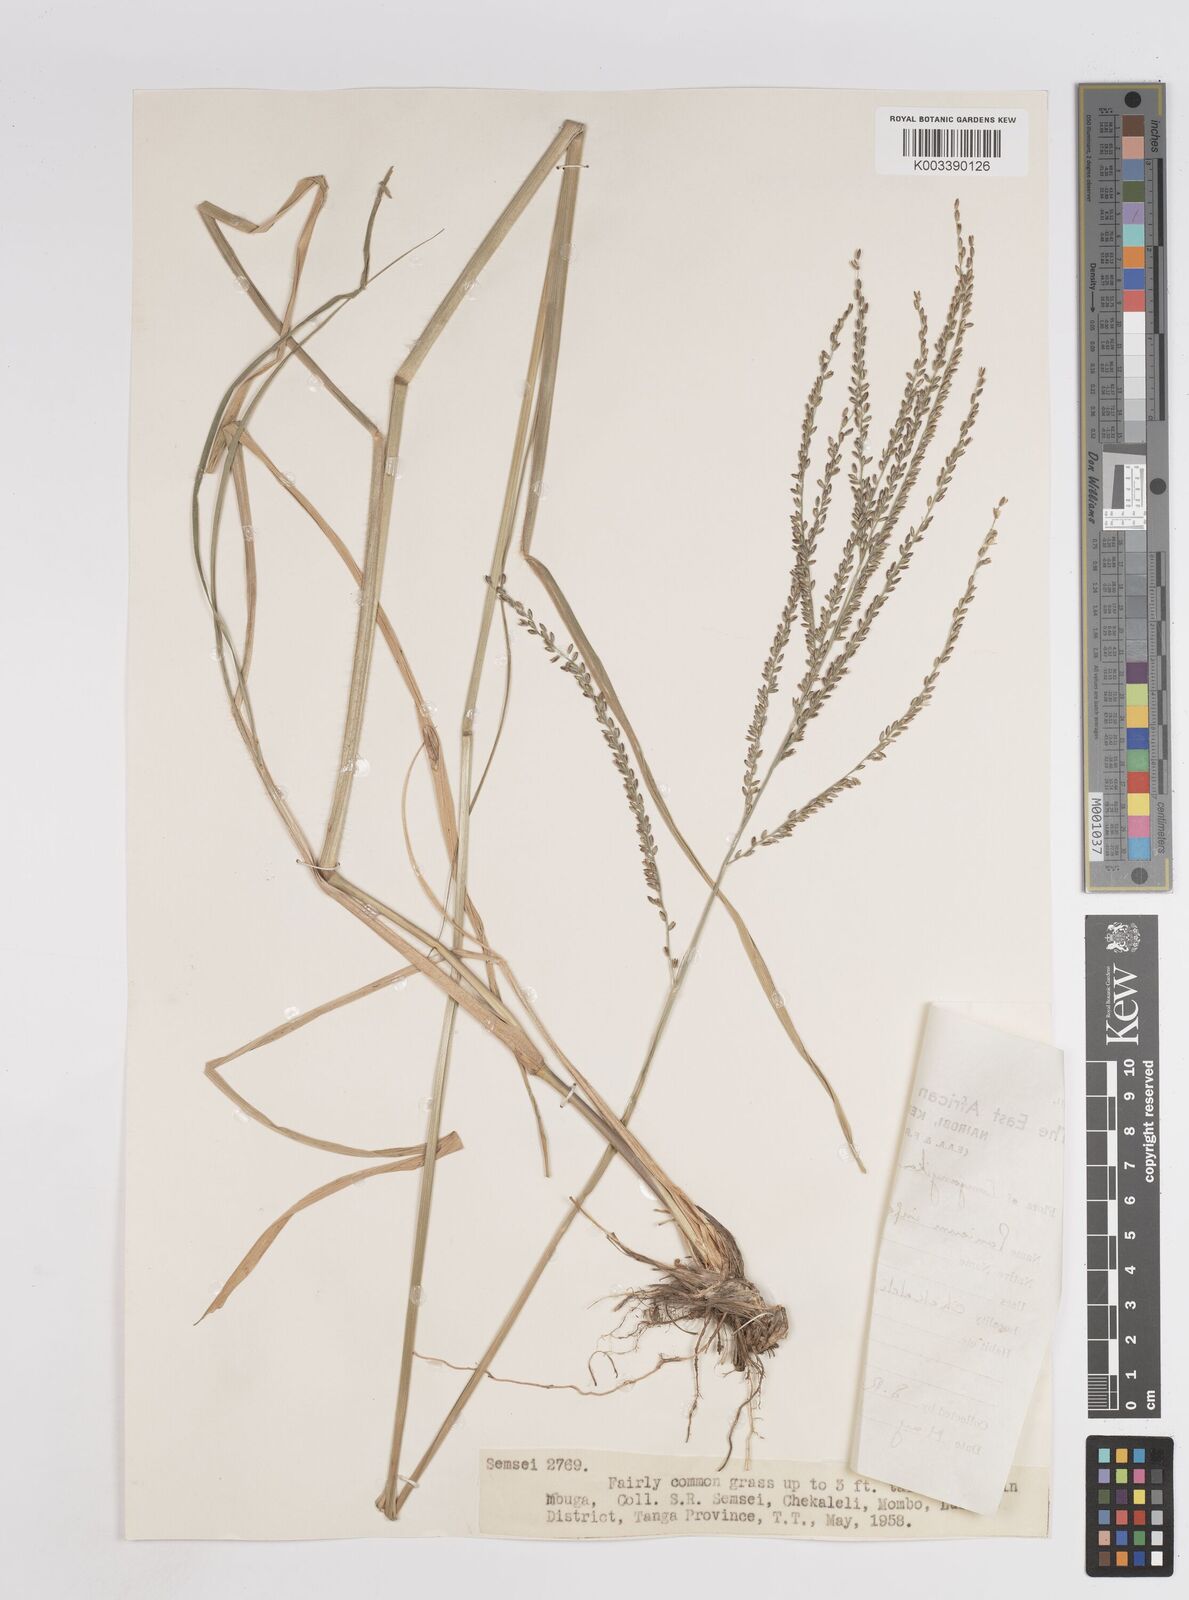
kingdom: Plantae
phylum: Tracheophyta
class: Liliopsida
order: Poales
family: Poaceae
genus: Megathyrsus
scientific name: Megathyrsus infestus
